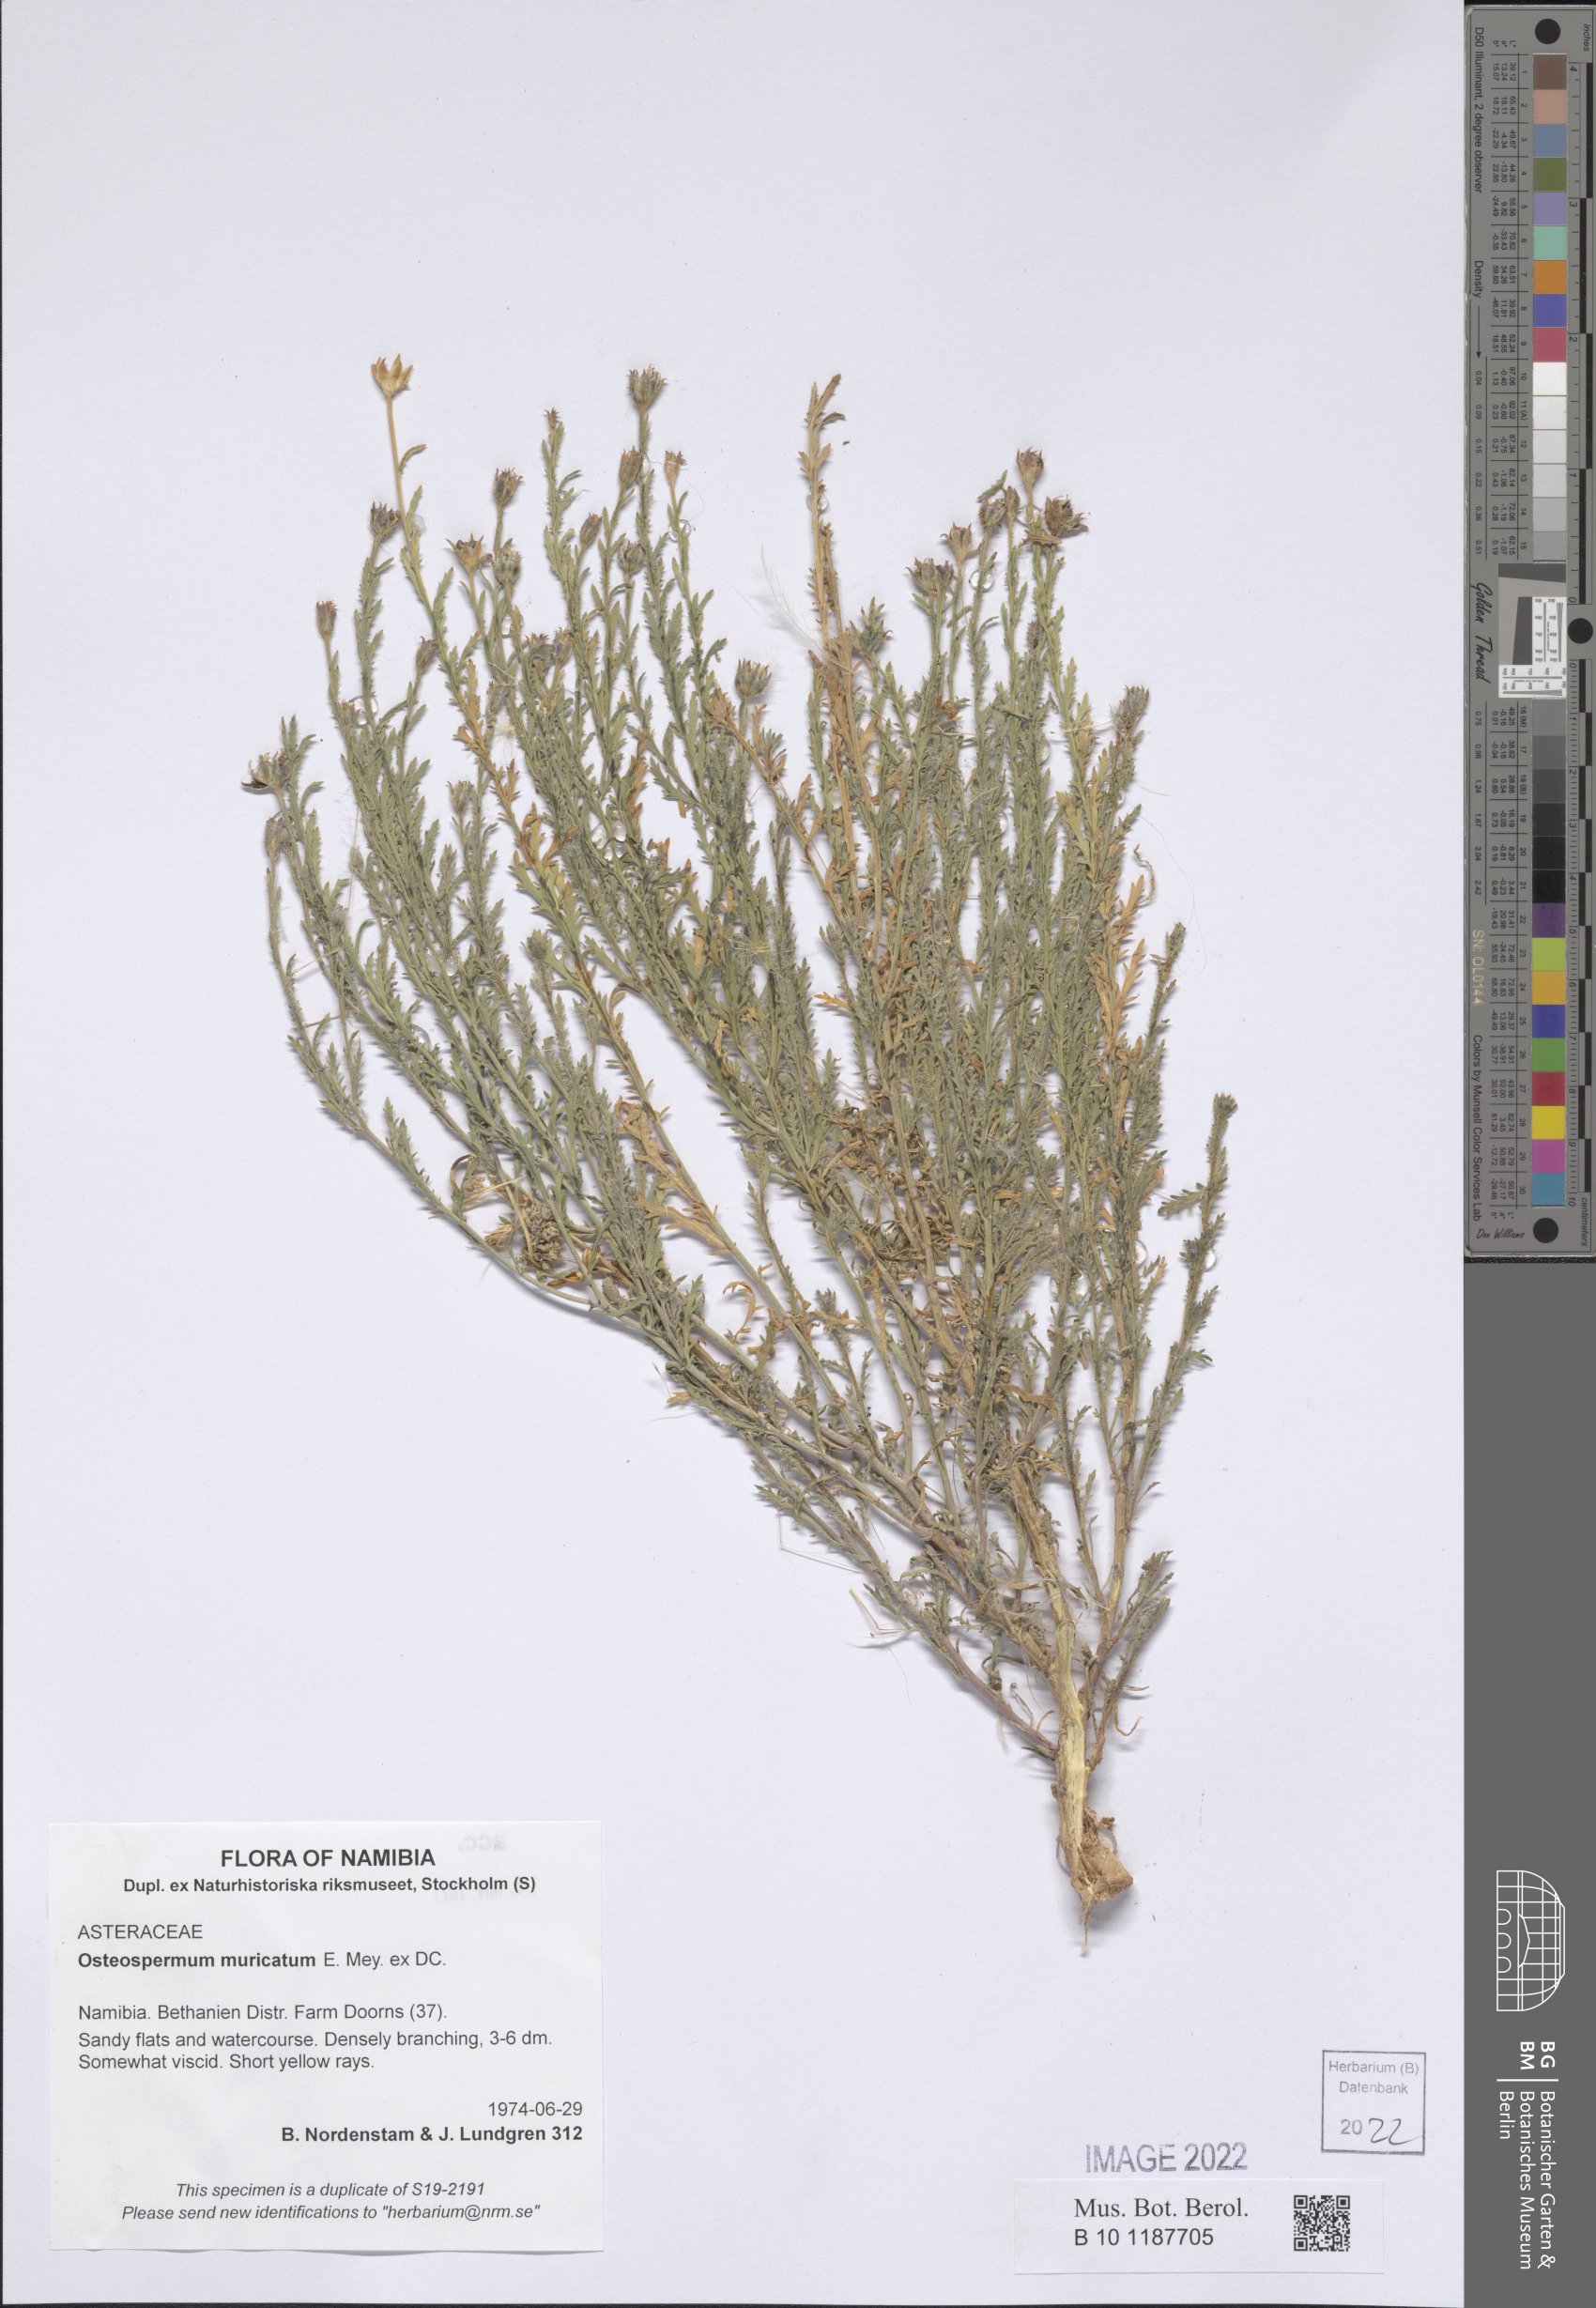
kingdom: Plantae
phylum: Tracheophyta
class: Magnoliopsida
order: Asterales
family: Asteraceae
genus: Osteospermum
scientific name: Osteospermum muricatum
